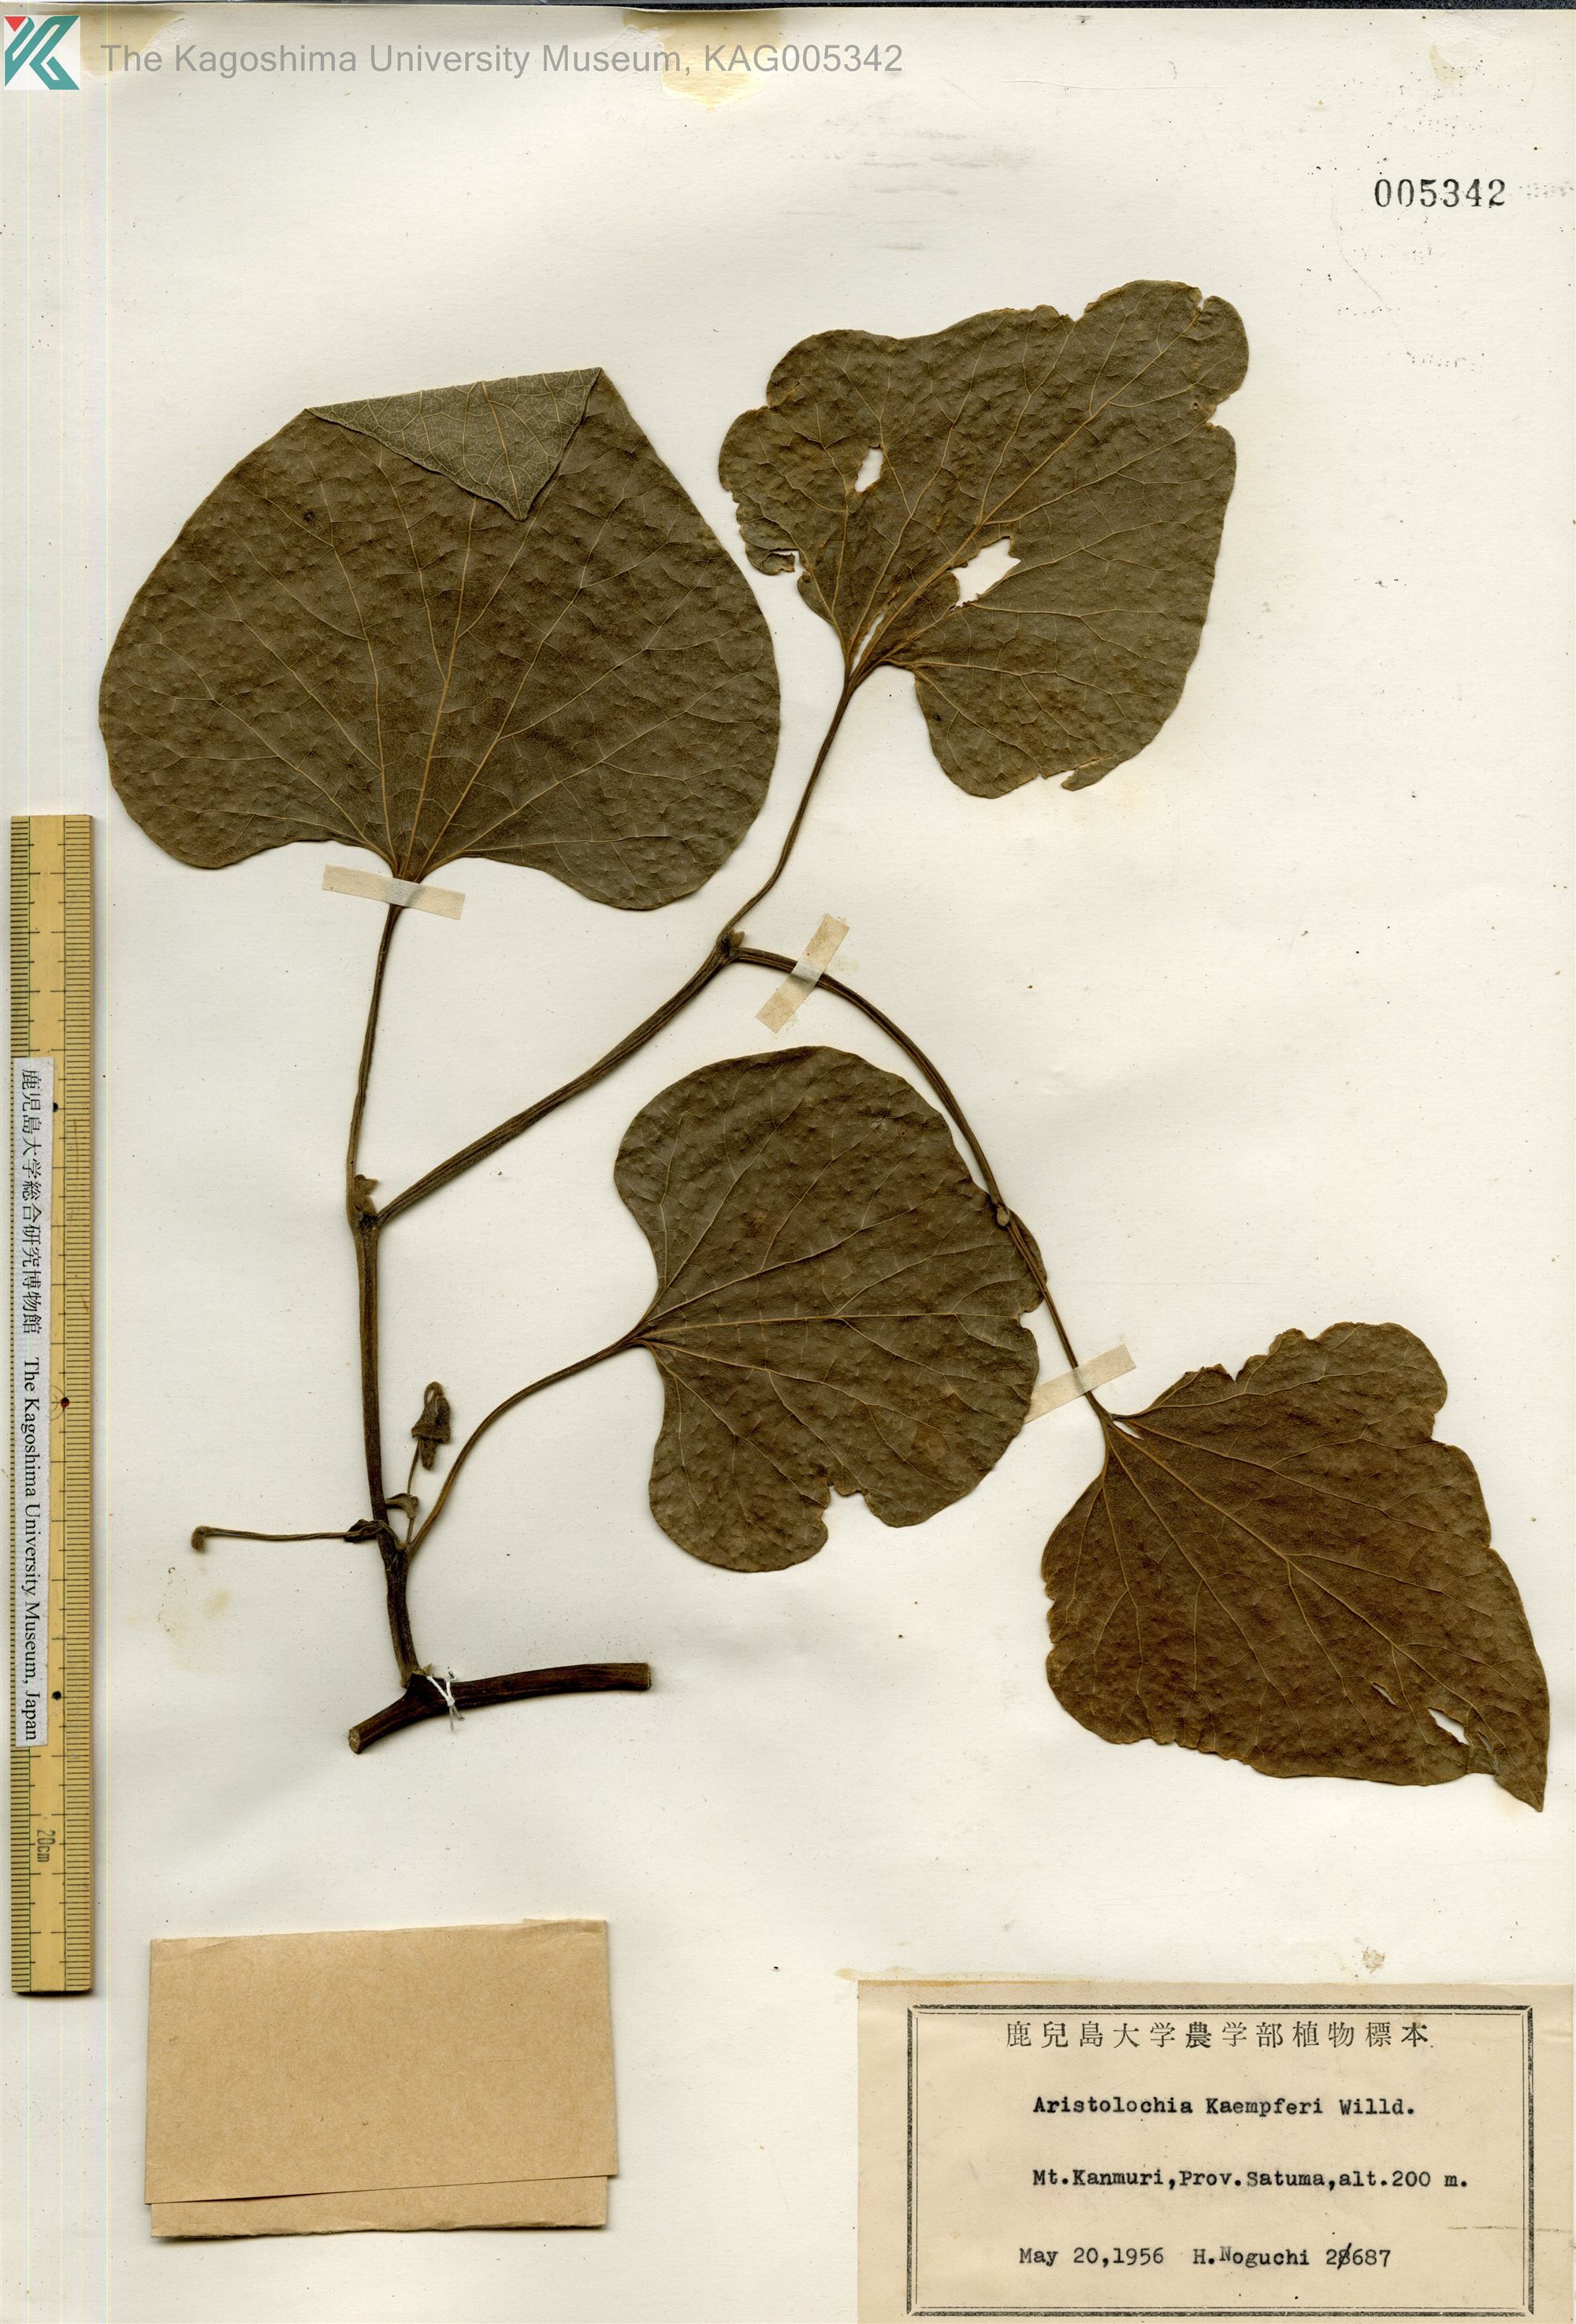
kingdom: Plantae
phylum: Tracheophyta
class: Magnoliopsida
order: Piperales
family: Aristolochiaceae
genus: Isotrema
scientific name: Isotrema kaempferi
